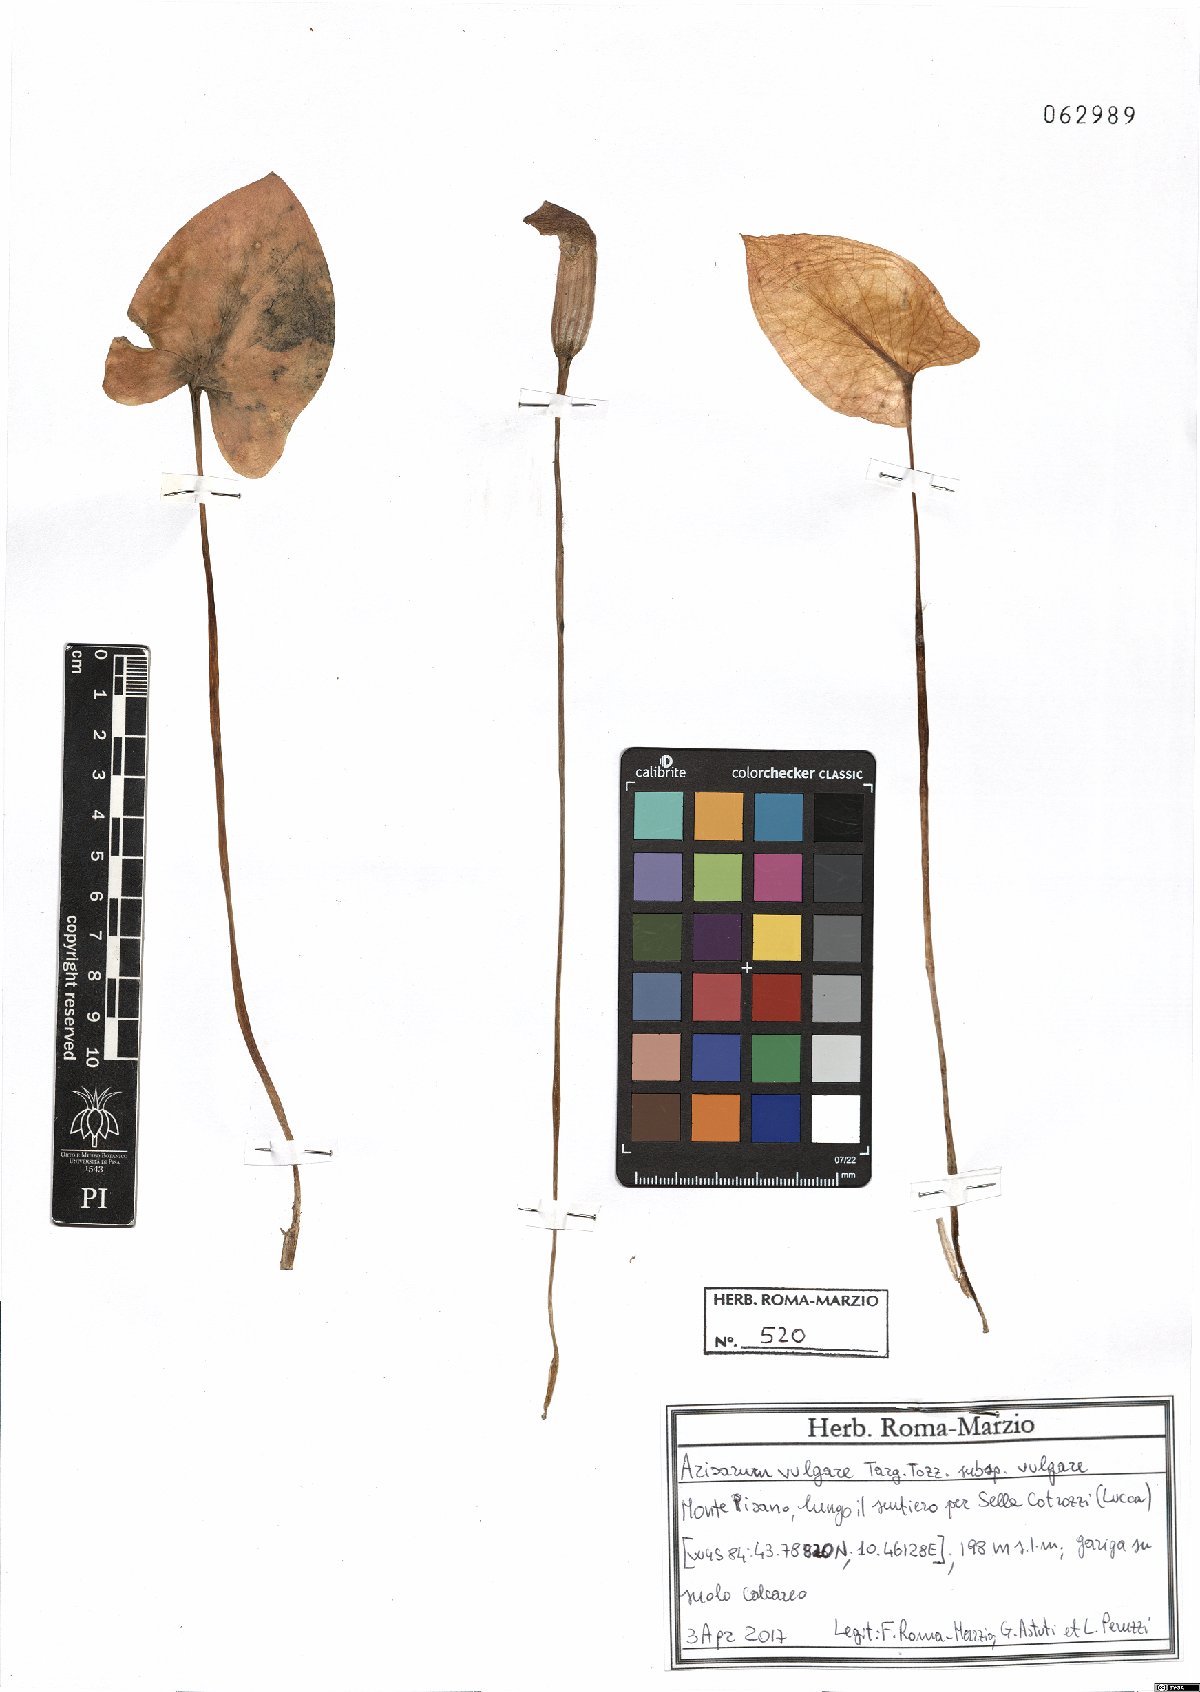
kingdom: Plantae
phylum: Tracheophyta
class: Liliopsida
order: Alismatales
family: Araceae
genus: Arisarum
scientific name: Arisarum vulgare
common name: Common arisarum
